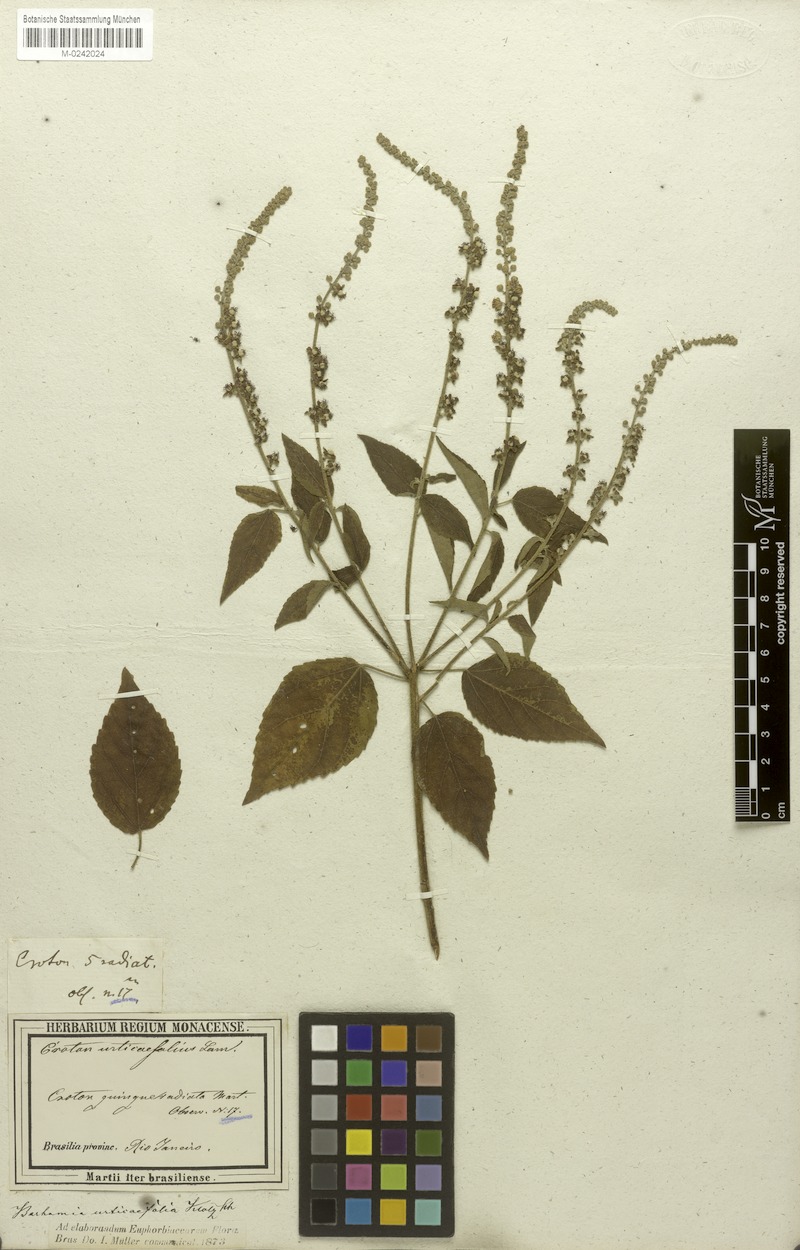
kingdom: Plantae
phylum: Tracheophyta
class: Magnoliopsida
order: Malpighiales
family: Euphorbiaceae
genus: Croton
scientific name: Croton urticifolius
